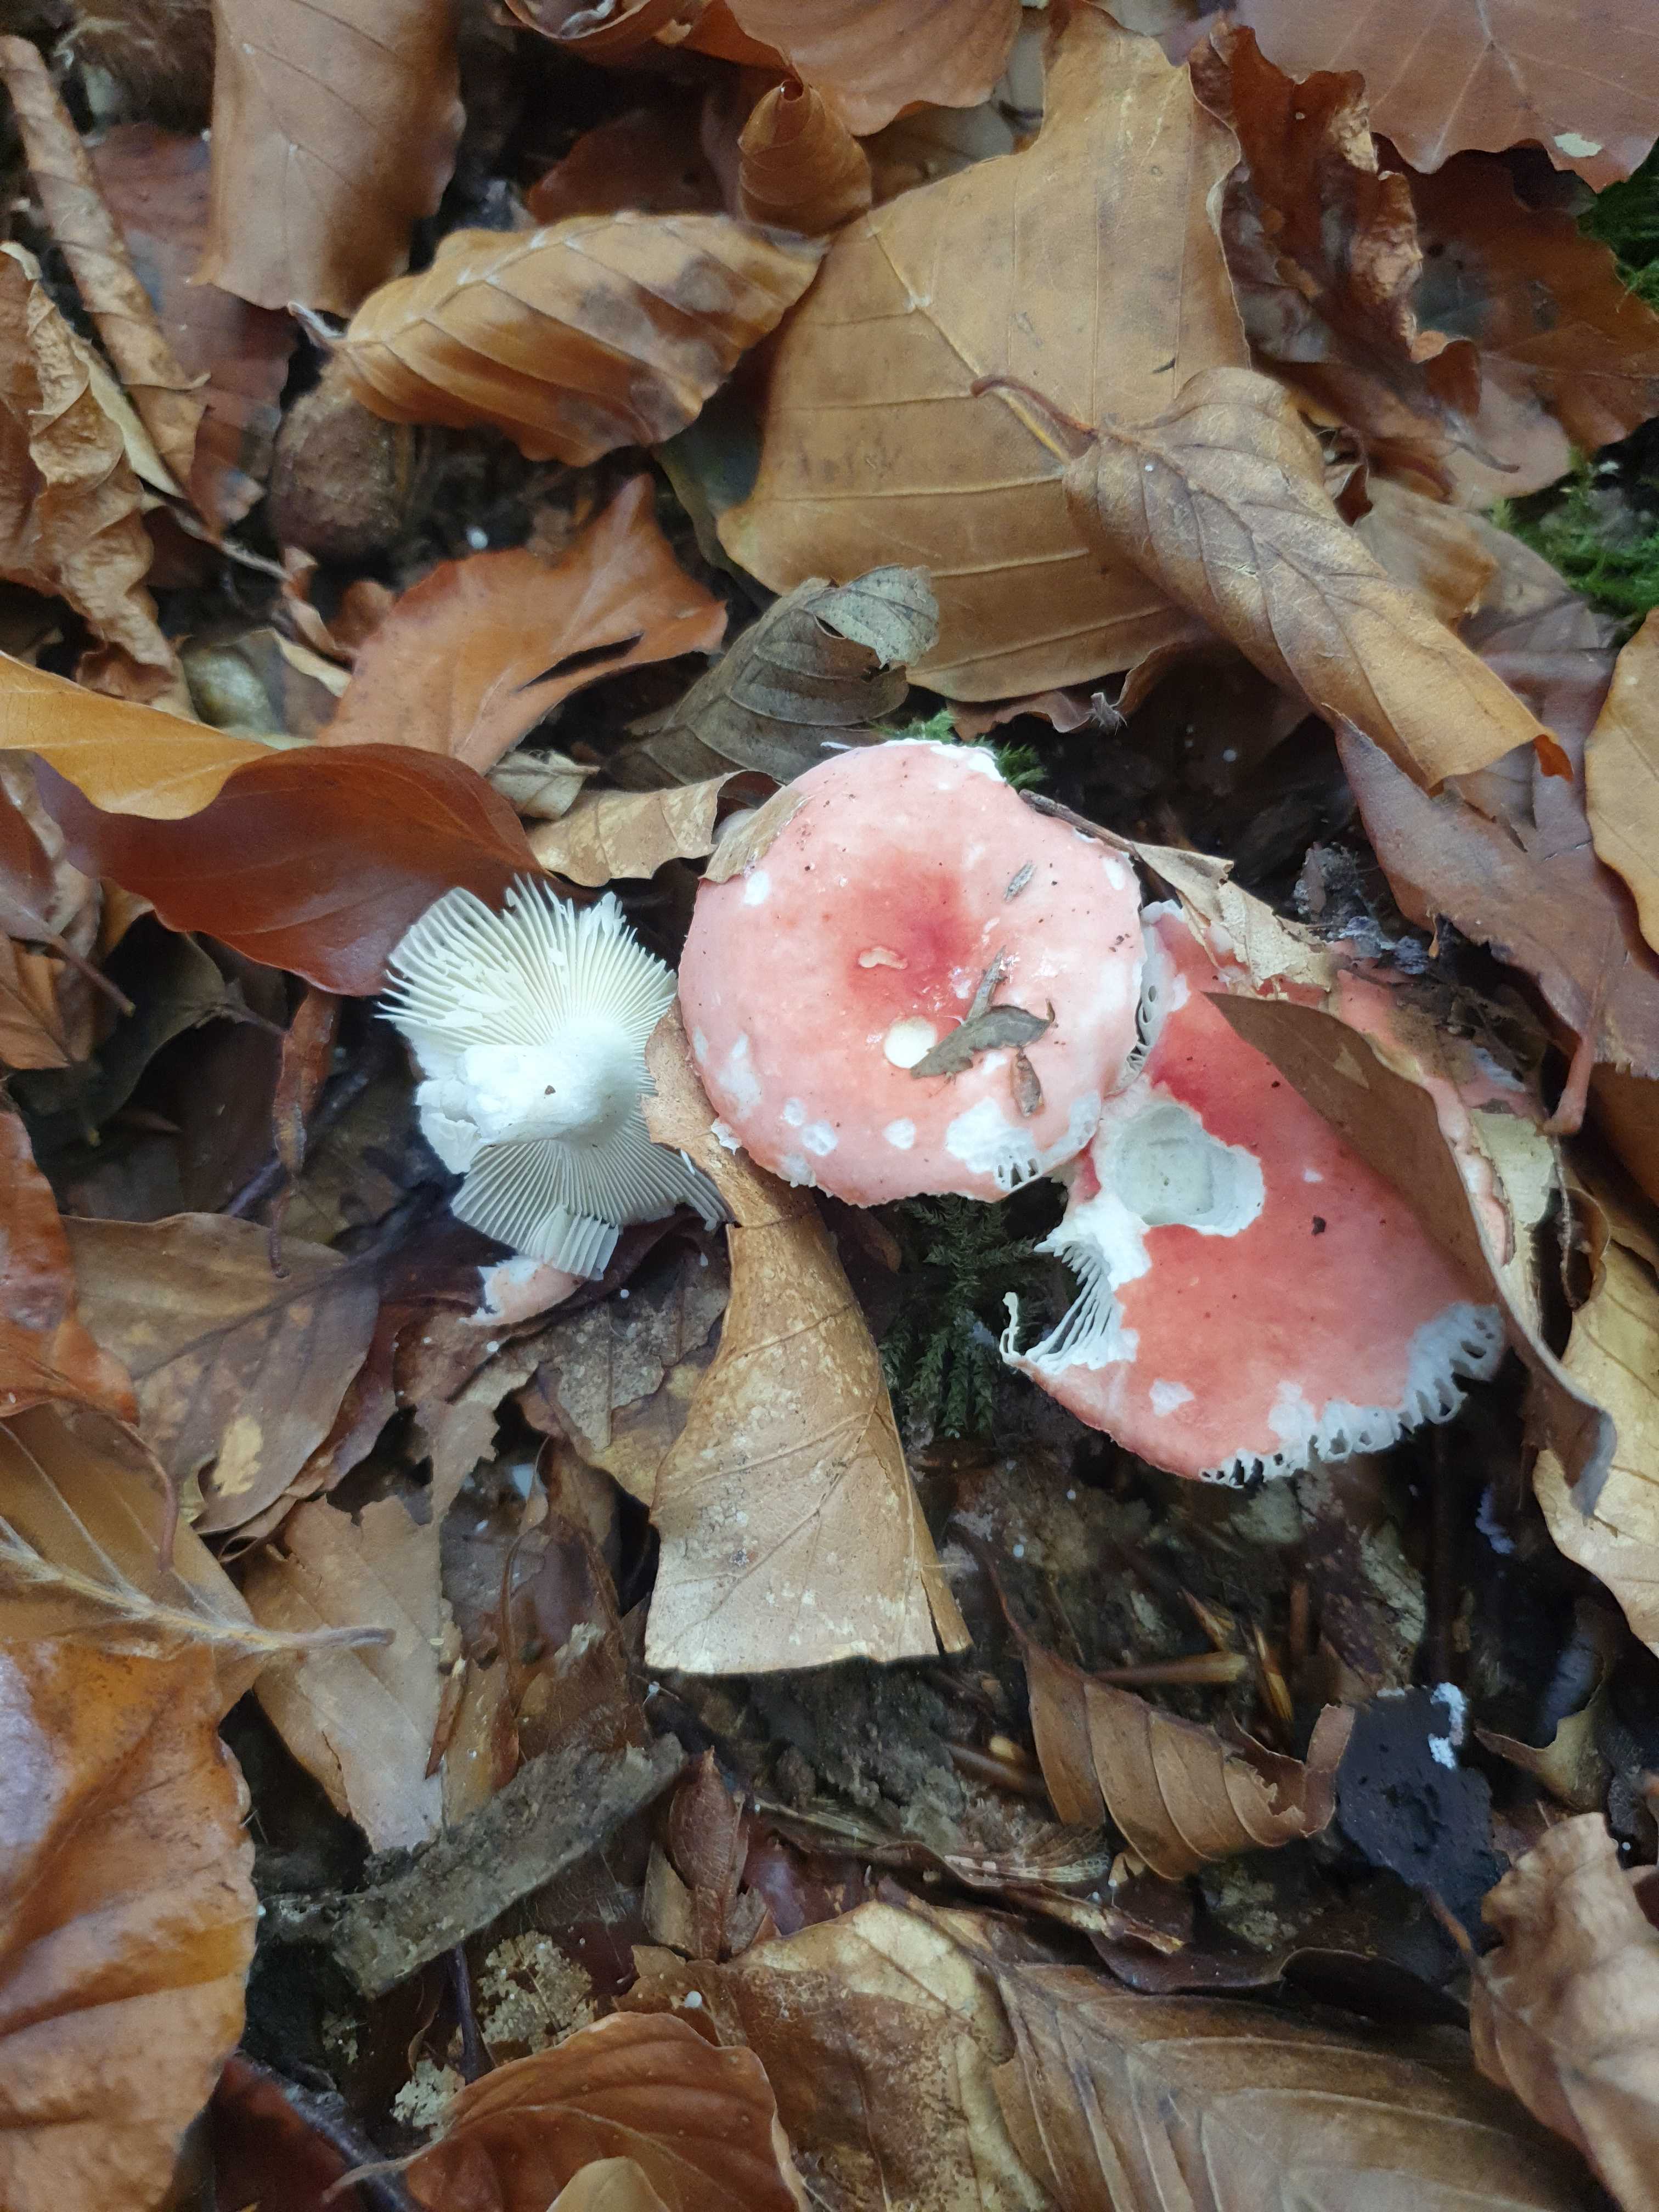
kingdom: Fungi
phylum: Basidiomycota
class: Agaricomycetes
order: Russulales
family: Russulaceae
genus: Russula
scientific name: Russula nobilis
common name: lille gift-skørhat
